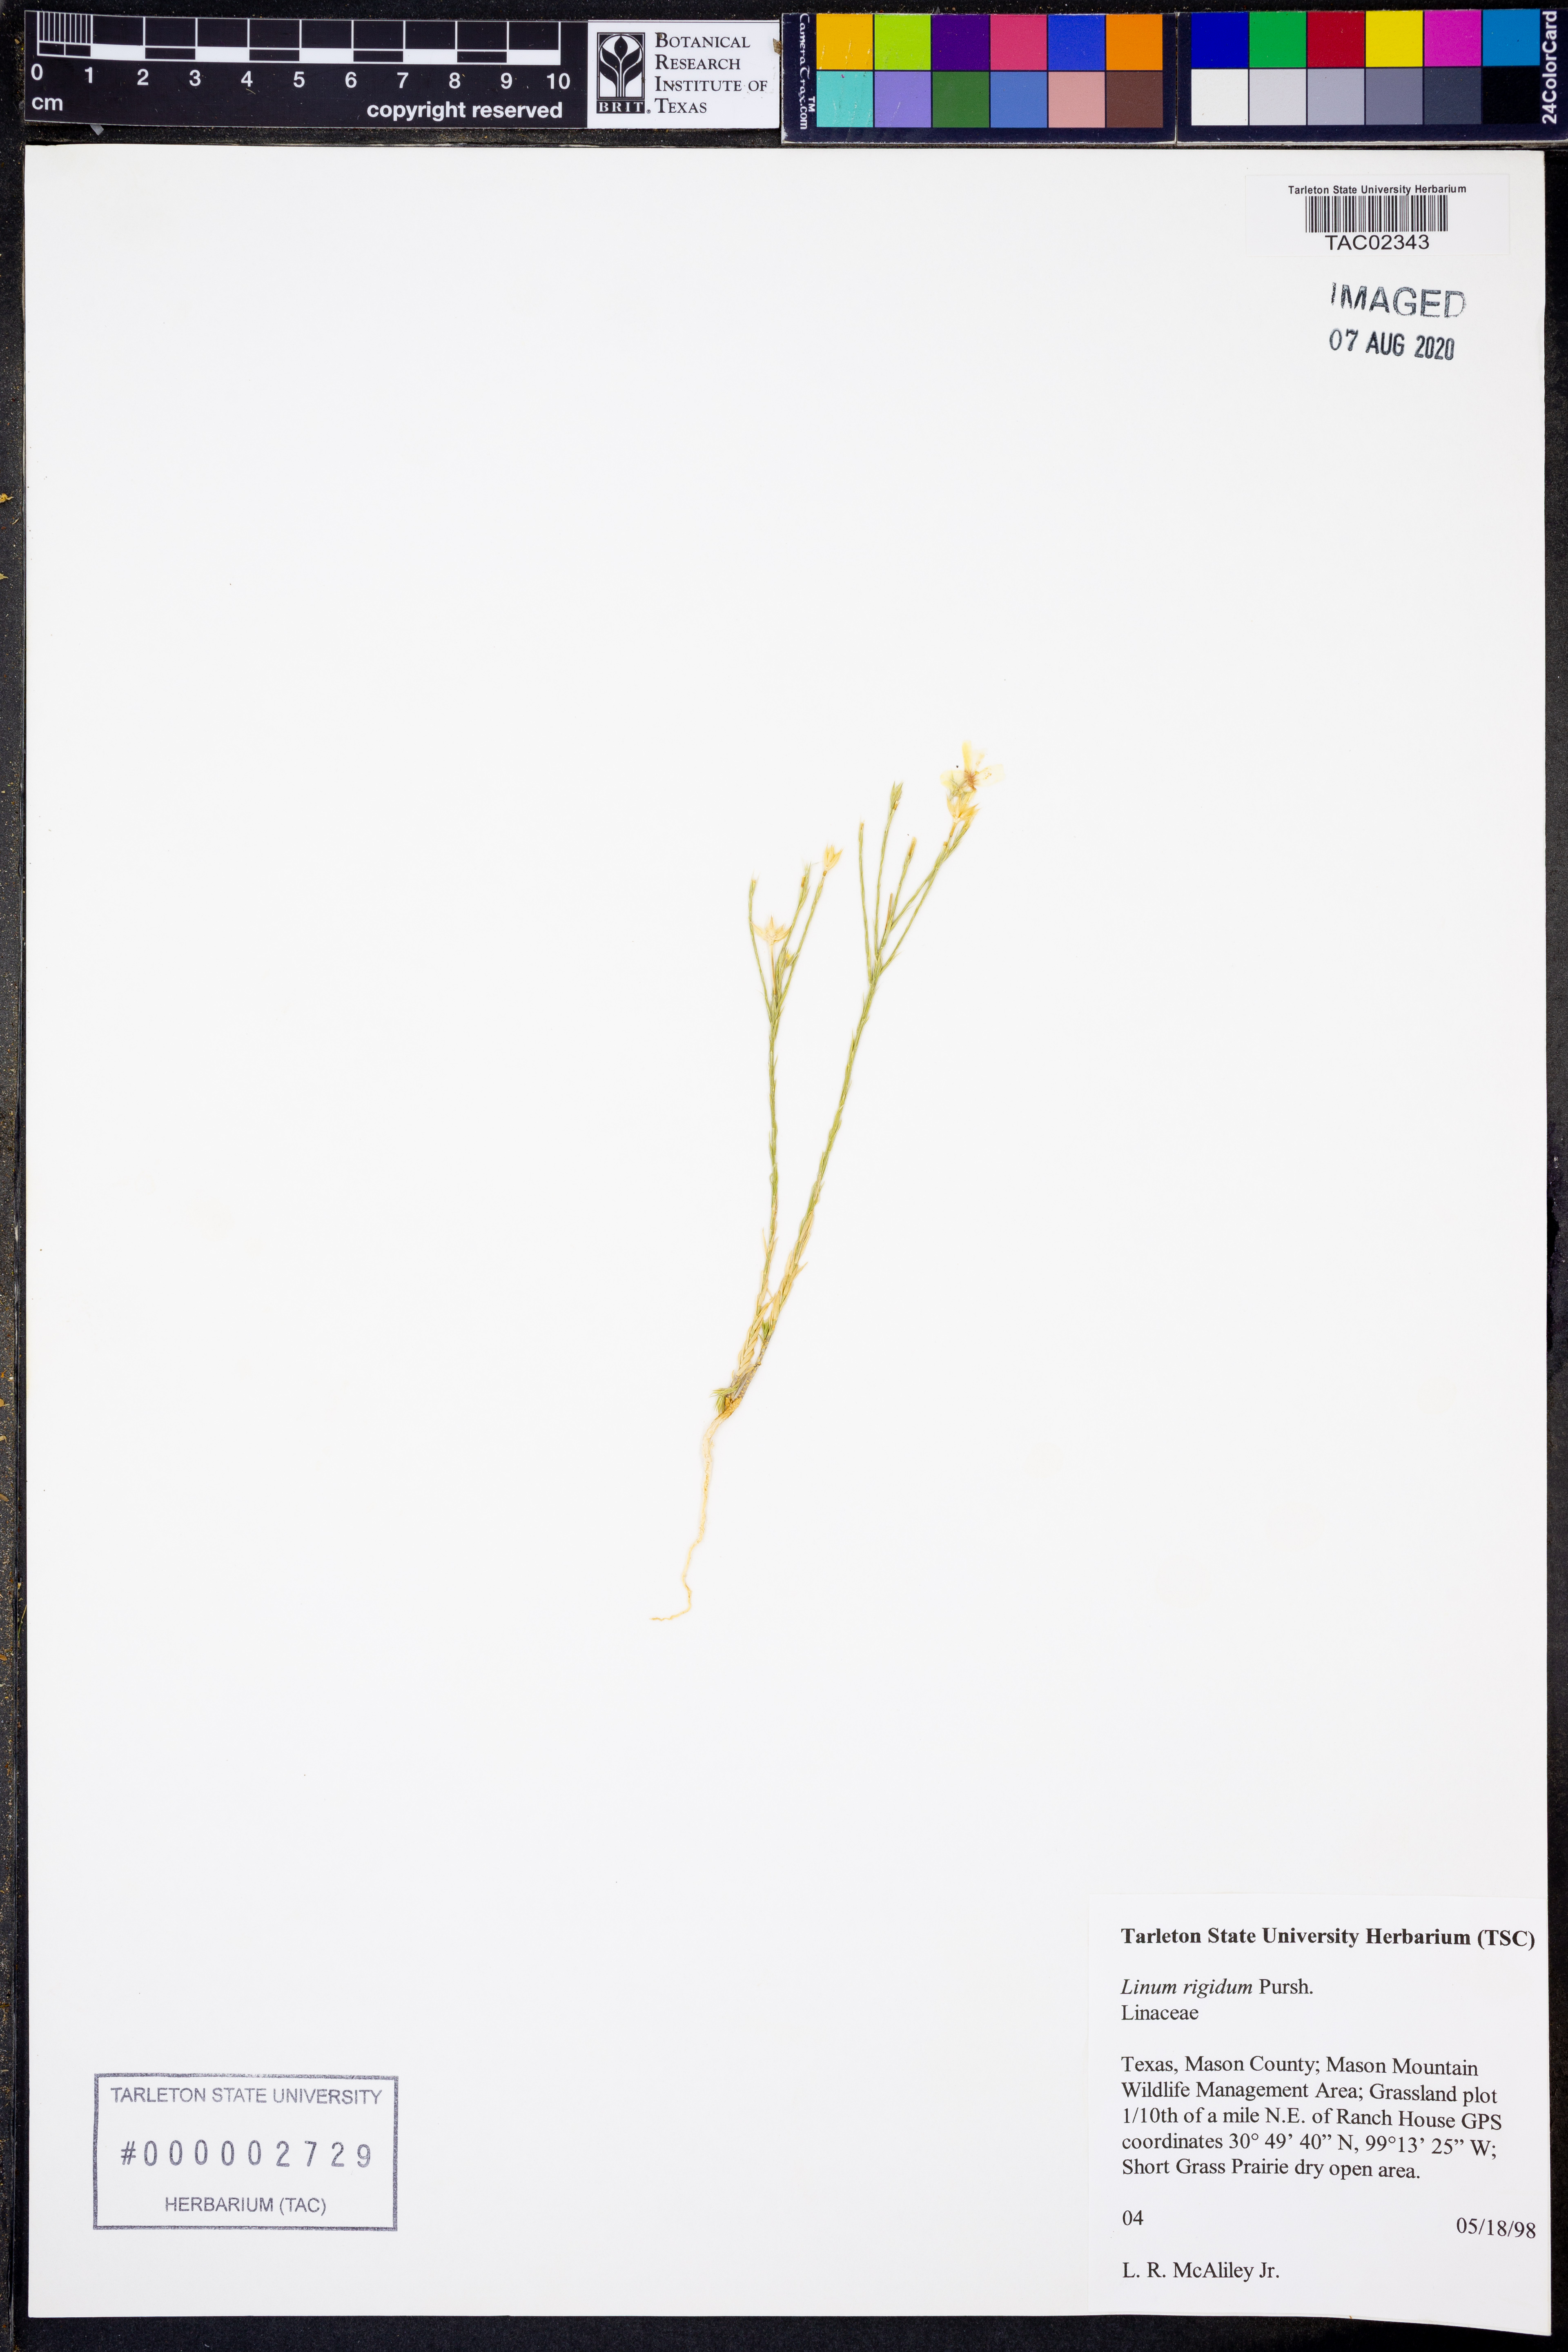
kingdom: Plantae
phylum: Tracheophyta
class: Magnoliopsida
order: Malpighiales
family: Linaceae
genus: Linum
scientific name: Linum rigidum
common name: Stiff-stem flax
